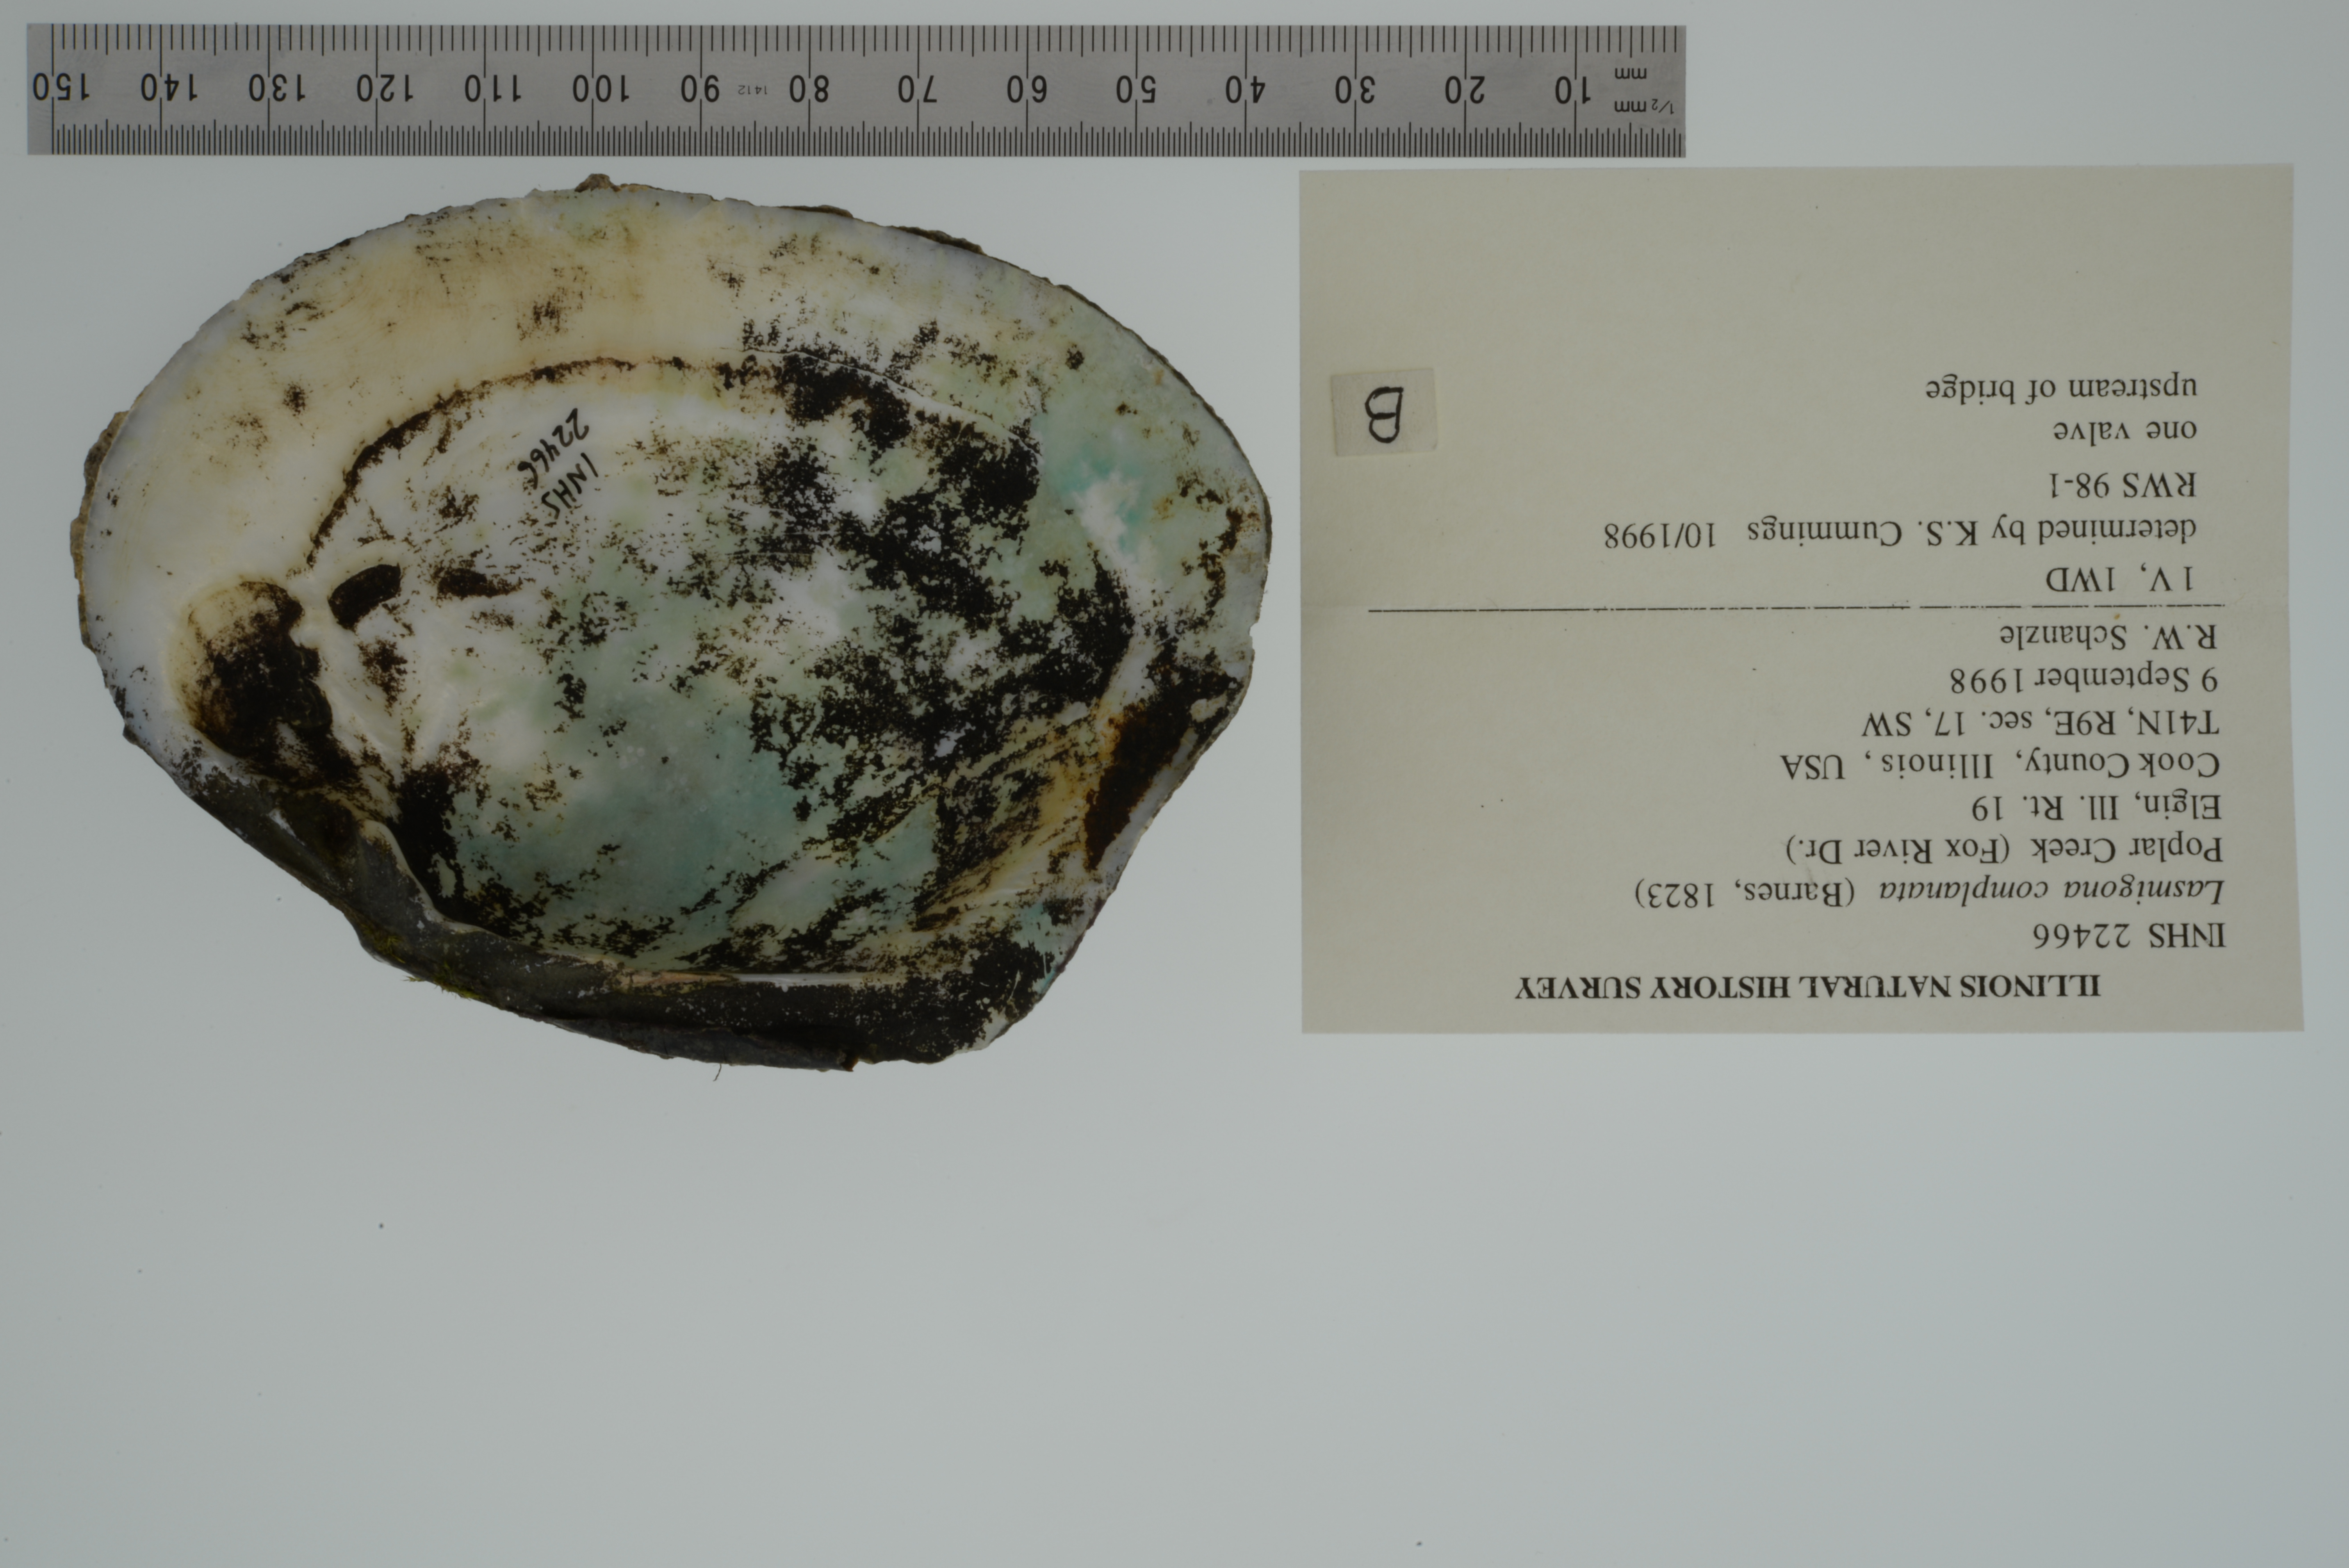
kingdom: Animalia
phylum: Mollusca
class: Bivalvia
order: Unionida
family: Unionidae
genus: Lasmigona
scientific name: Lasmigona complanata
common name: White heelsplitter
